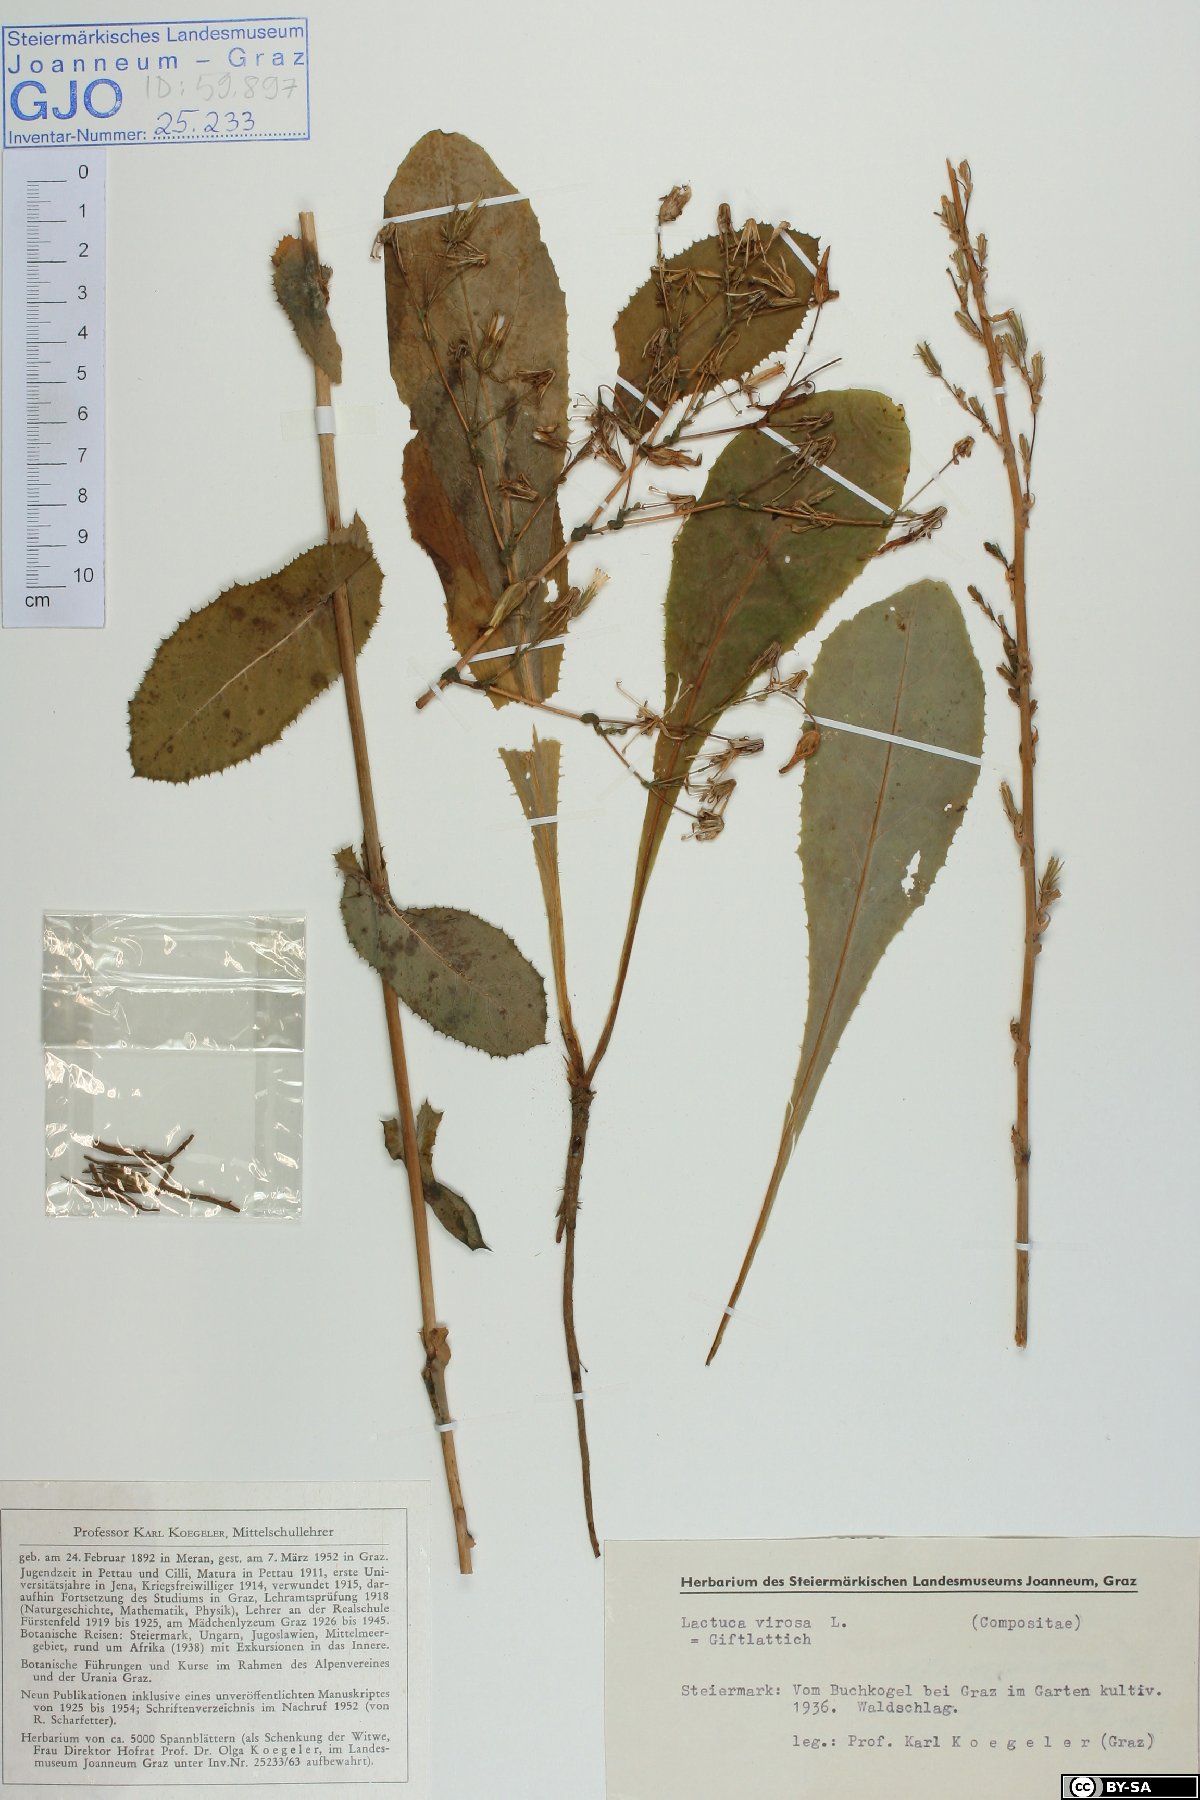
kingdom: Plantae
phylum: Tracheophyta
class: Magnoliopsida
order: Asterales
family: Asteraceae
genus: Lactuca
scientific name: Lactuca virosa
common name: Great lettuce
